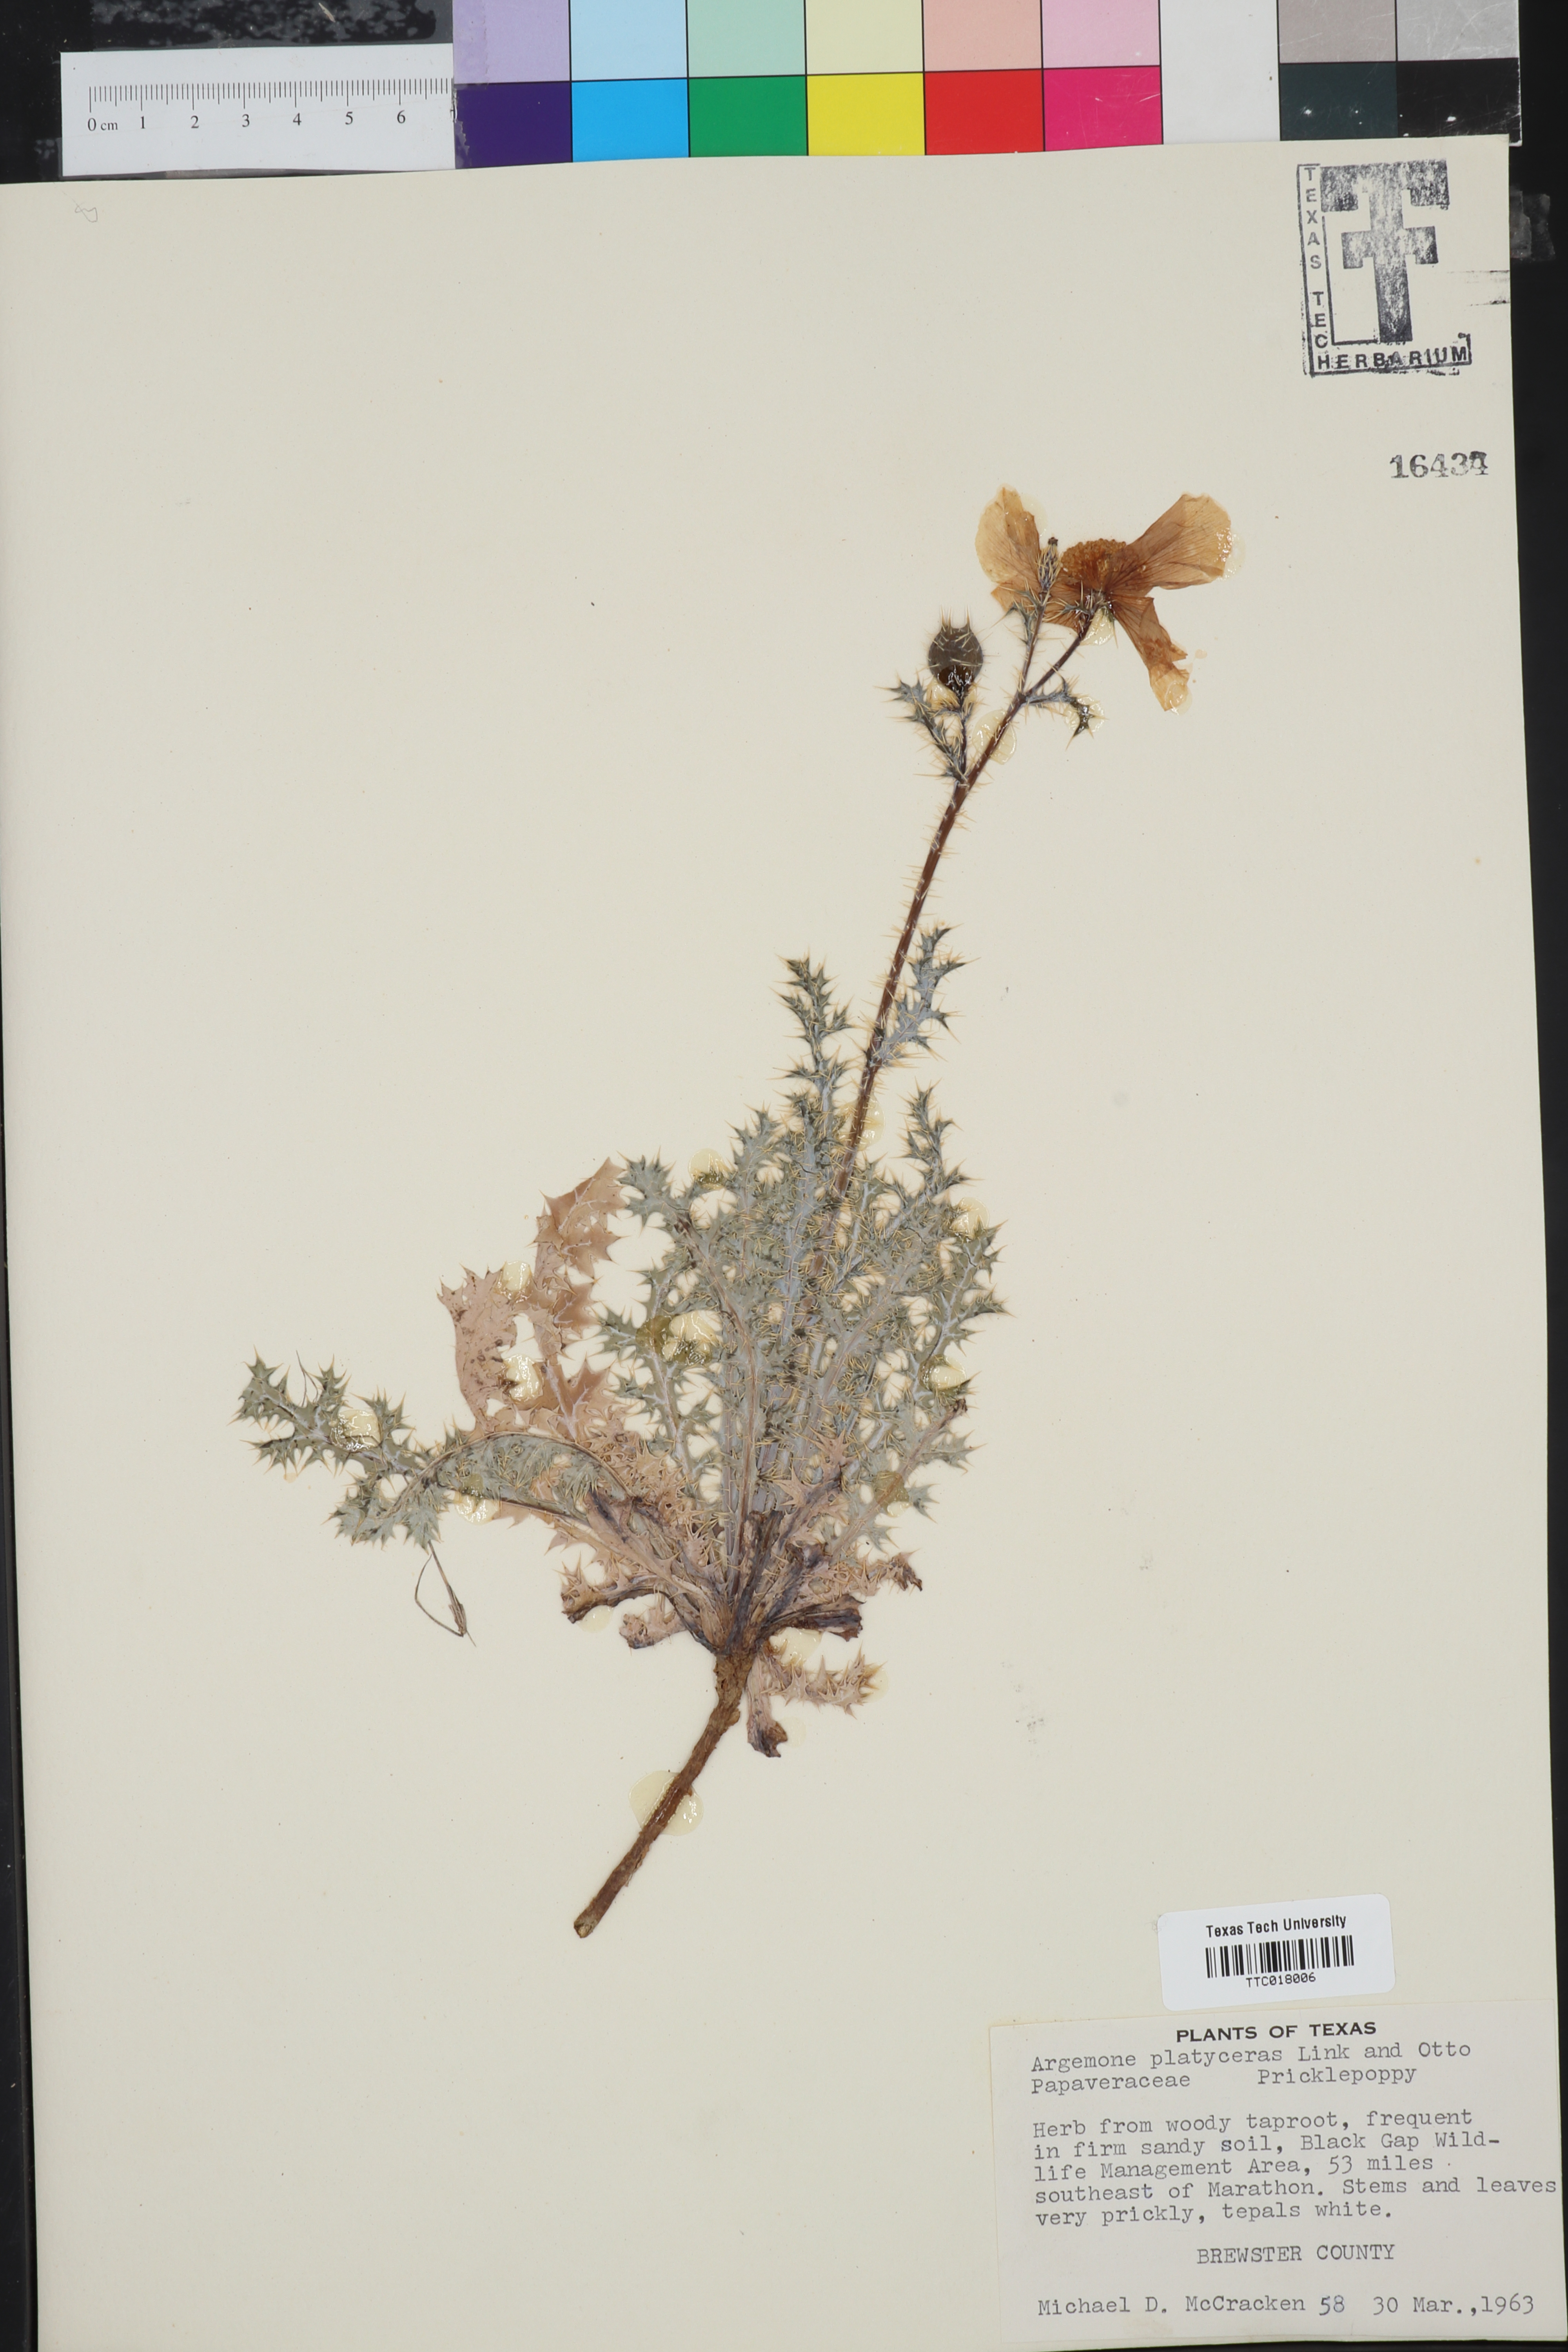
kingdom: Plantae
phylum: Tracheophyta
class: Magnoliopsida
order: Ranunculales
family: Papaveraceae
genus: Argemone
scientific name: Argemone platyceras
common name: Crested-poppy
